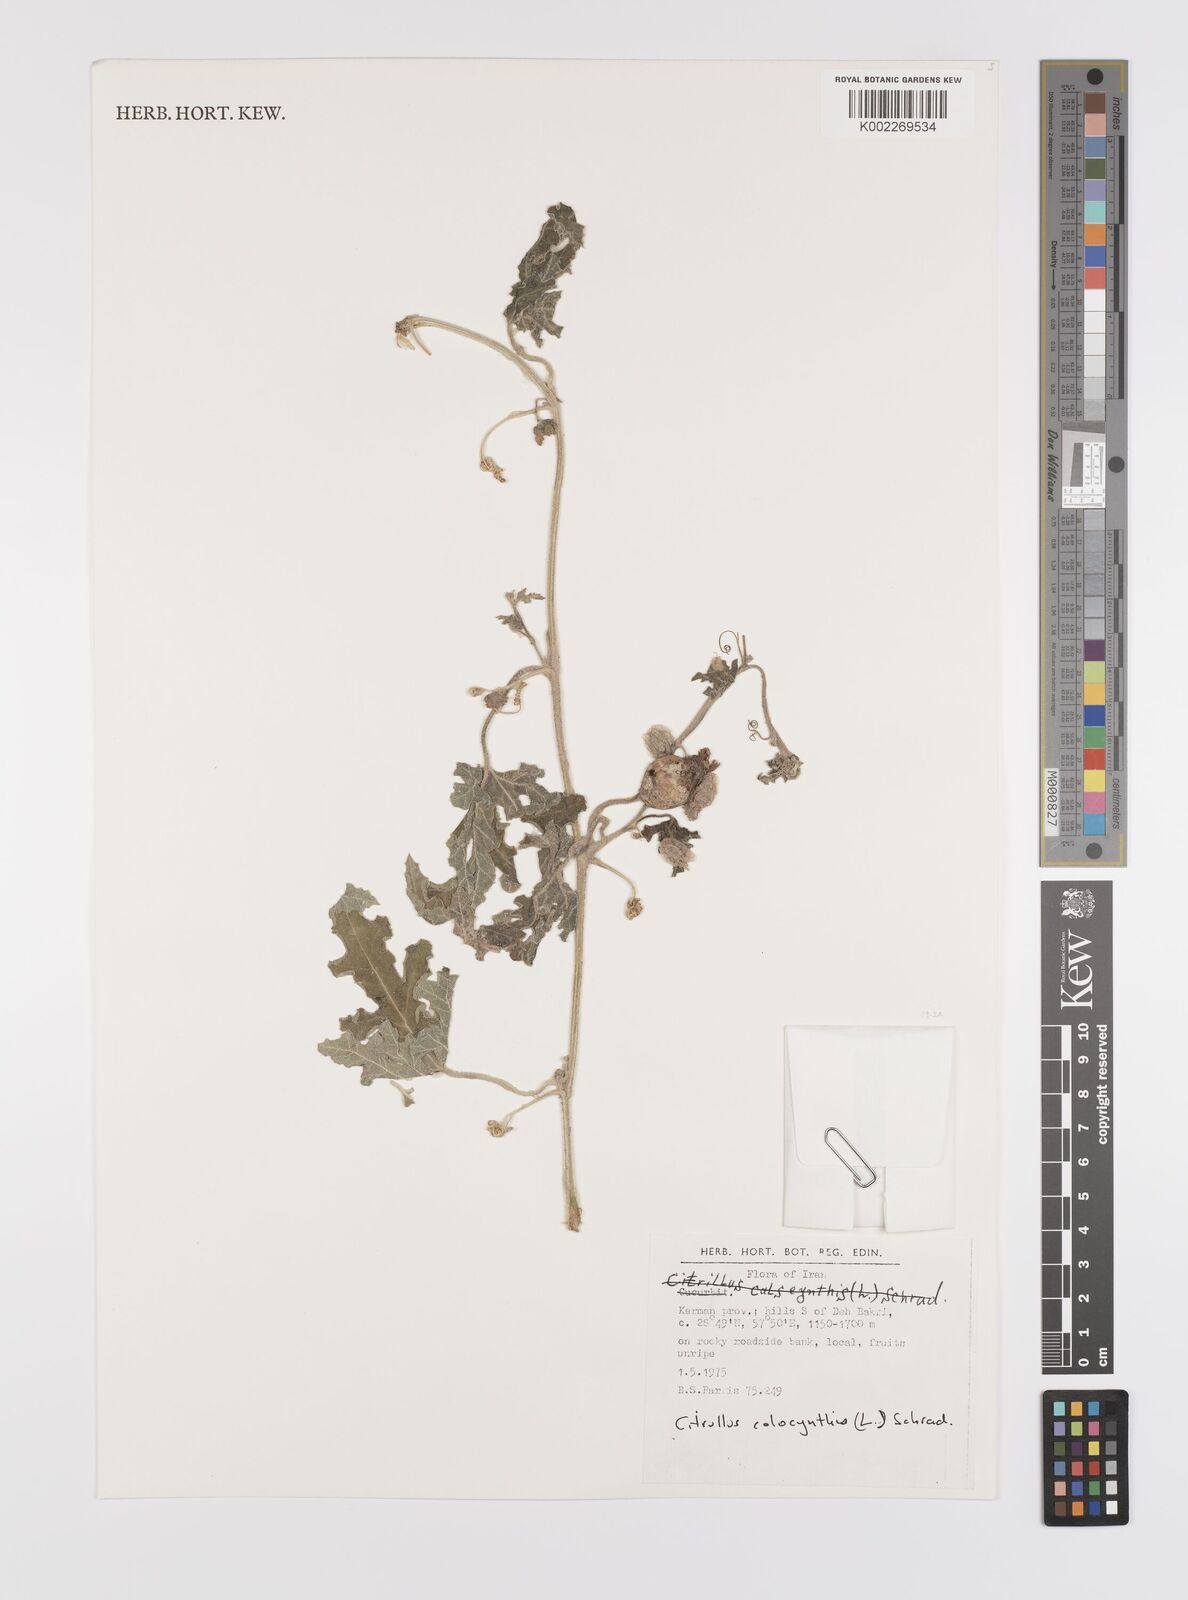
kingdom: Plantae
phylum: Tracheophyta
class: Magnoliopsida
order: Cucurbitales
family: Cucurbitaceae
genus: Citrullus
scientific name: Citrullus colocynthis
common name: Colocynth
